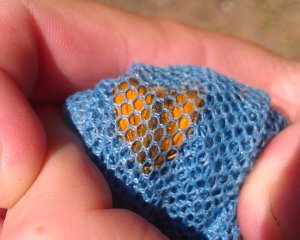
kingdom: Animalia
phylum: Arthropoda
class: Insecta
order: Lepidoptera
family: Hesperiidae
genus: Thymelicus
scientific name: Thymelicus lineola
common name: European Skipper
